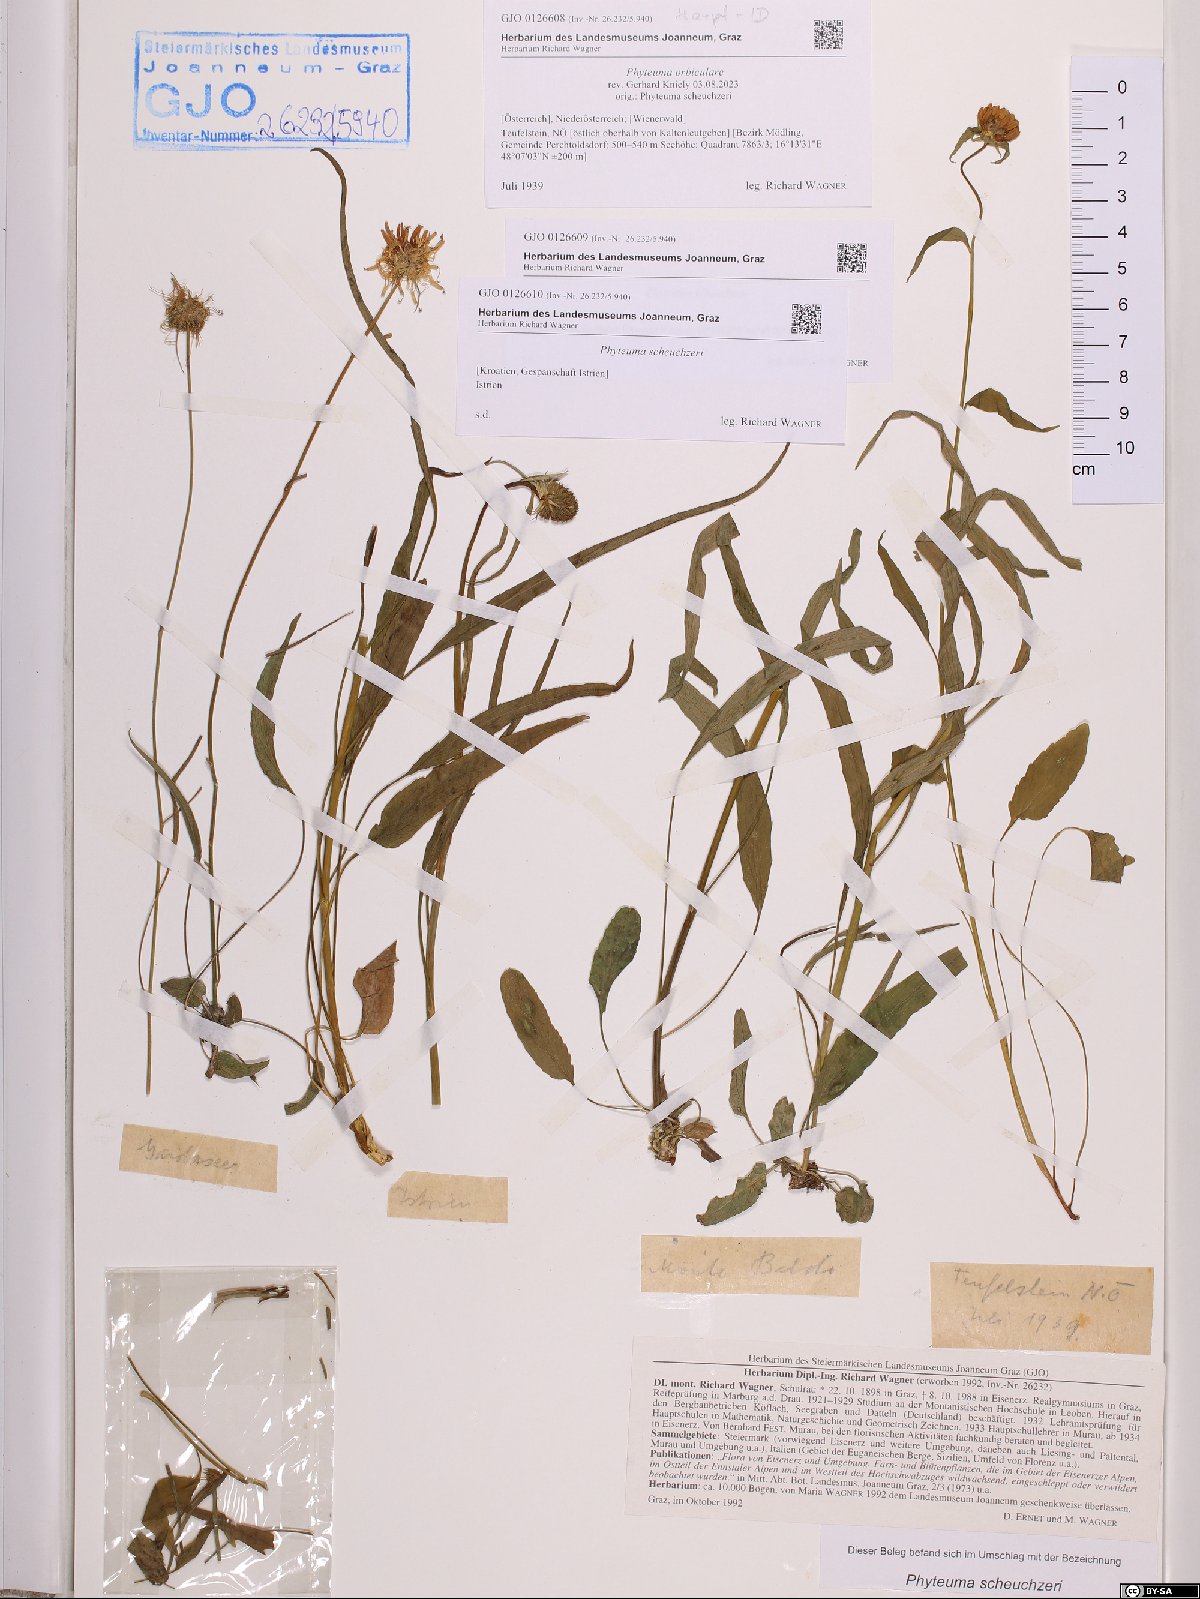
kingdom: Plantae
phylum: Tracheophyta
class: Magnoliopsida
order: Asterales
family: Campanulaceae
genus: Phyteuma
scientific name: Phyteuma orbiculare
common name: Round-headed rampion
